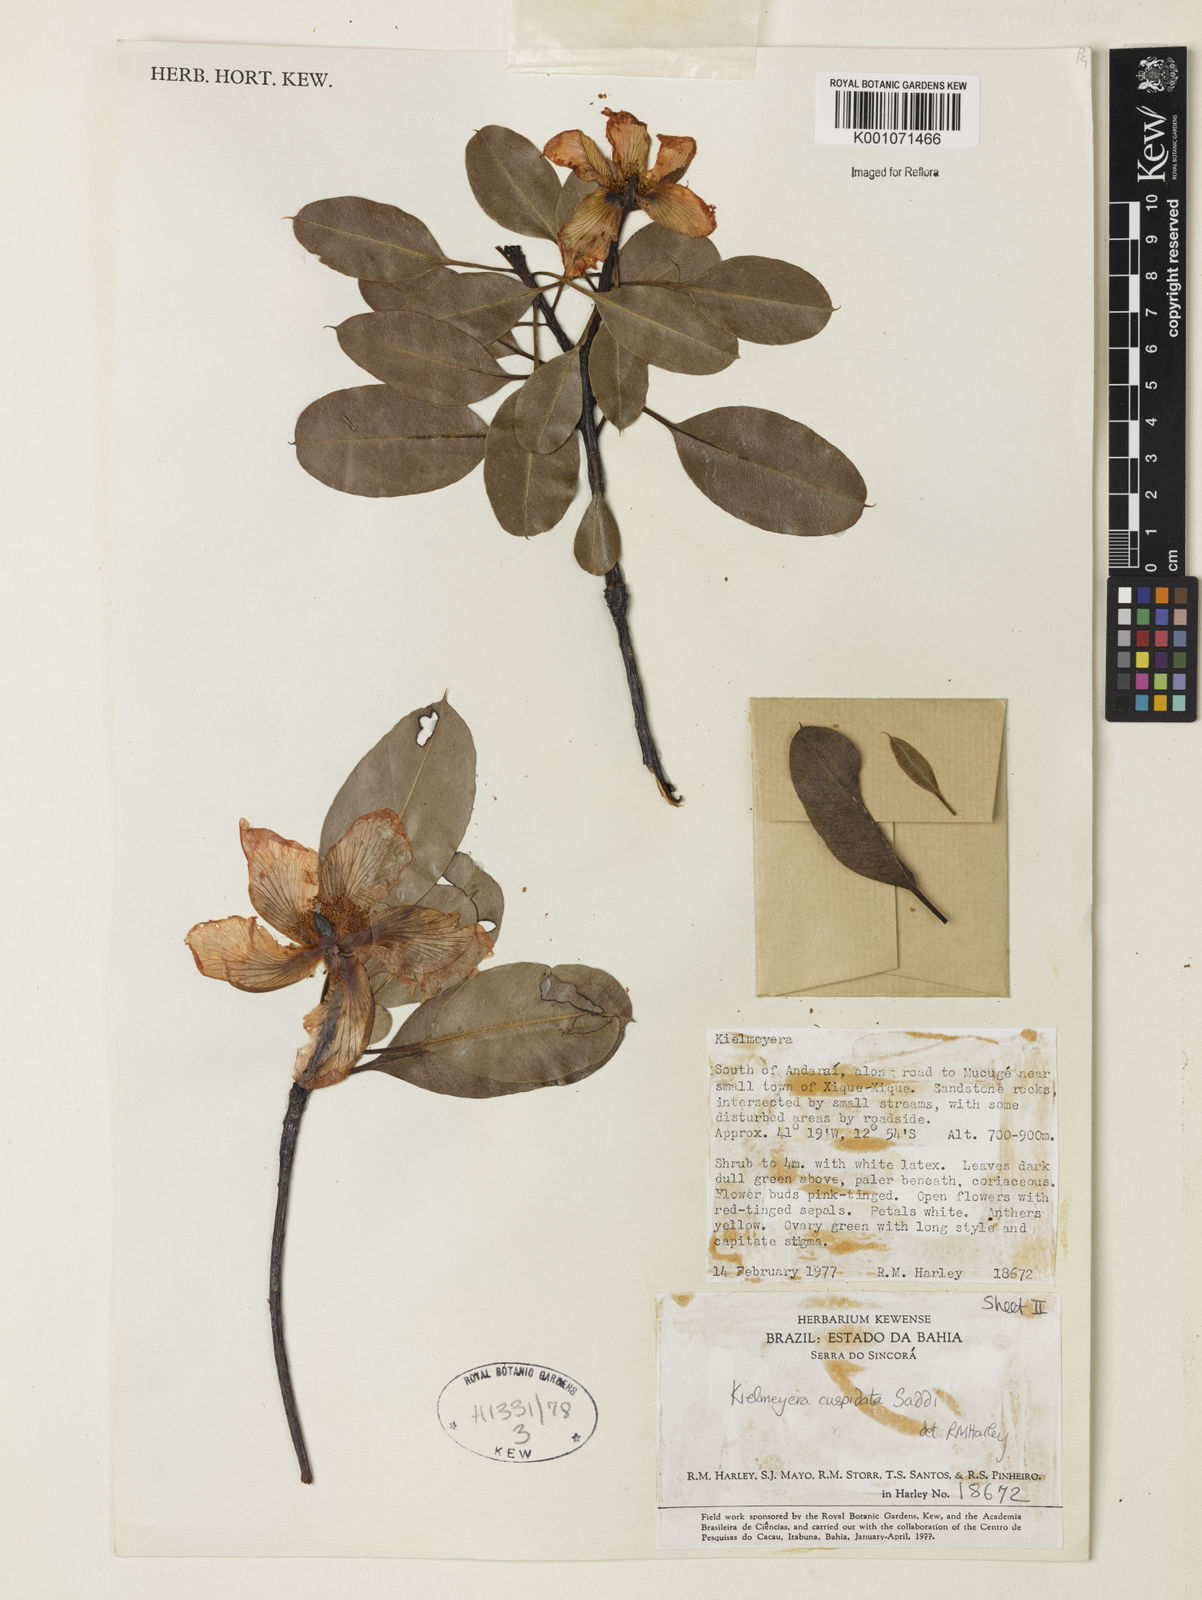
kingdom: Plantae
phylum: Tracheophyta
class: Magnoliopsida
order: Malpighiales
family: Calophyllaceae
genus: Kielmeyera
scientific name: Kielmeyera cuspidata
